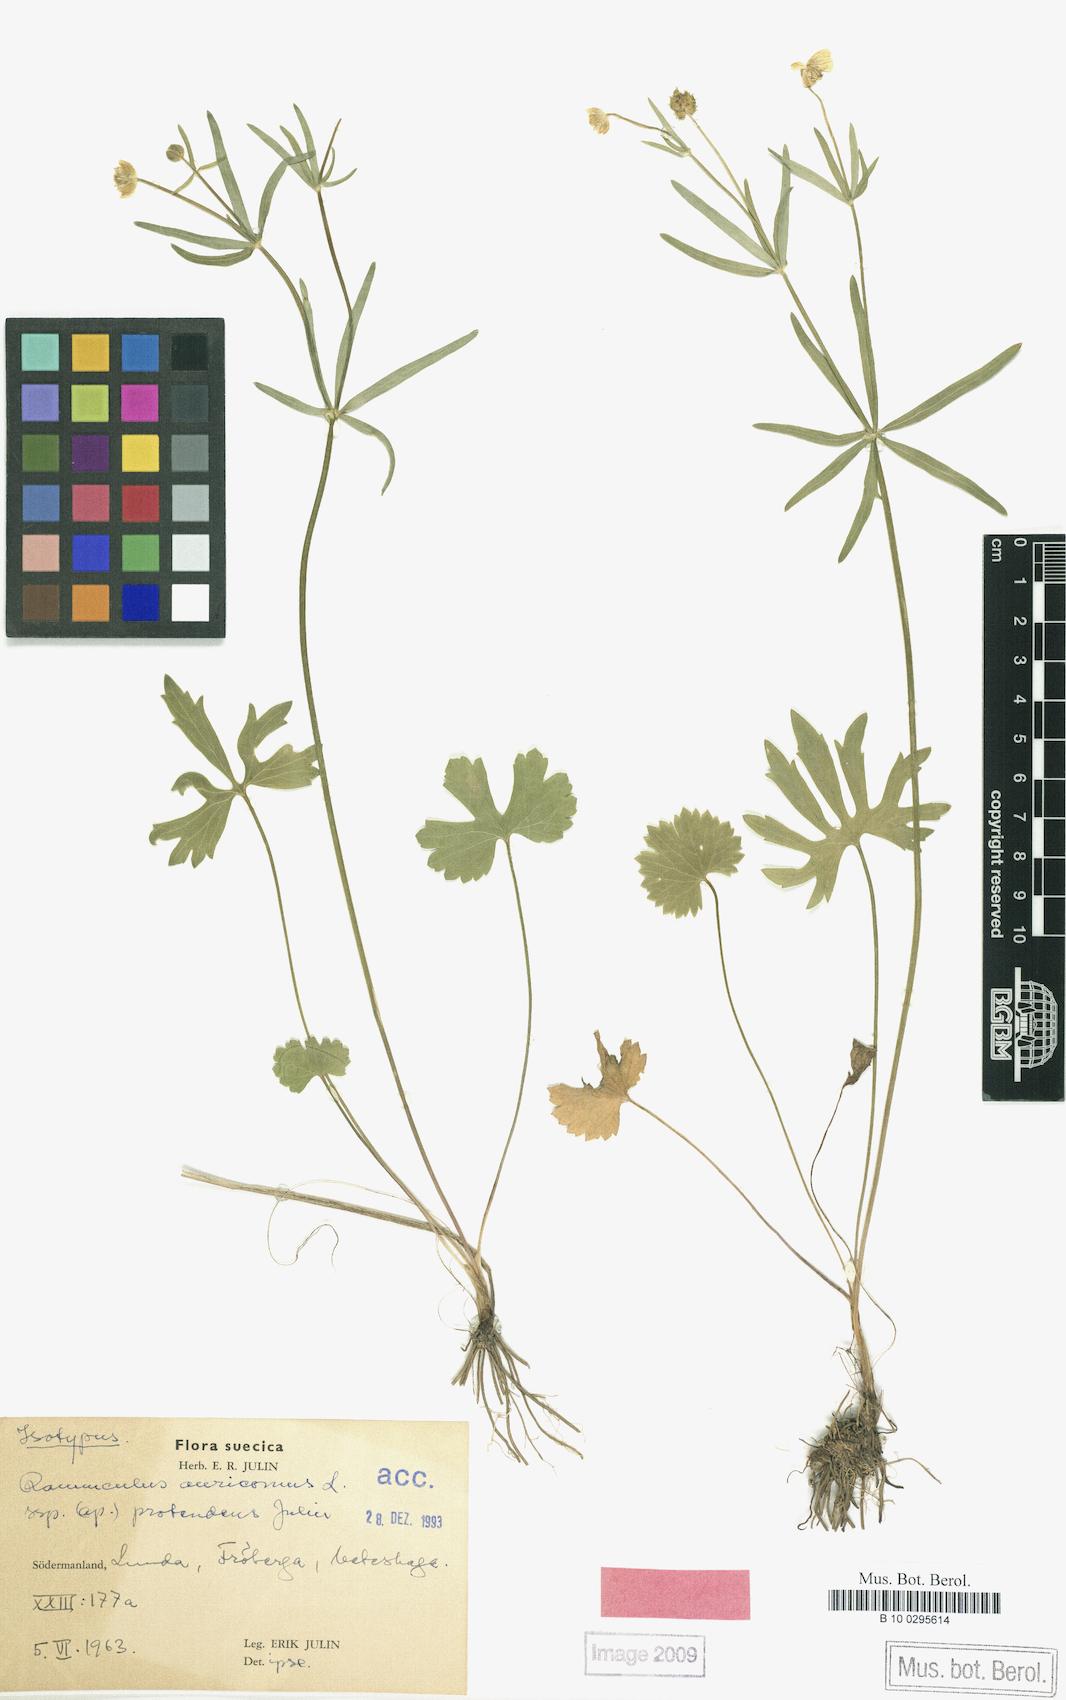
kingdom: Plantae
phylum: Tracheophyta
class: Magnoliopsida
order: Ranunculales
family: Ranunculaceae
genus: Ranunculus
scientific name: Ranunculus protendens
